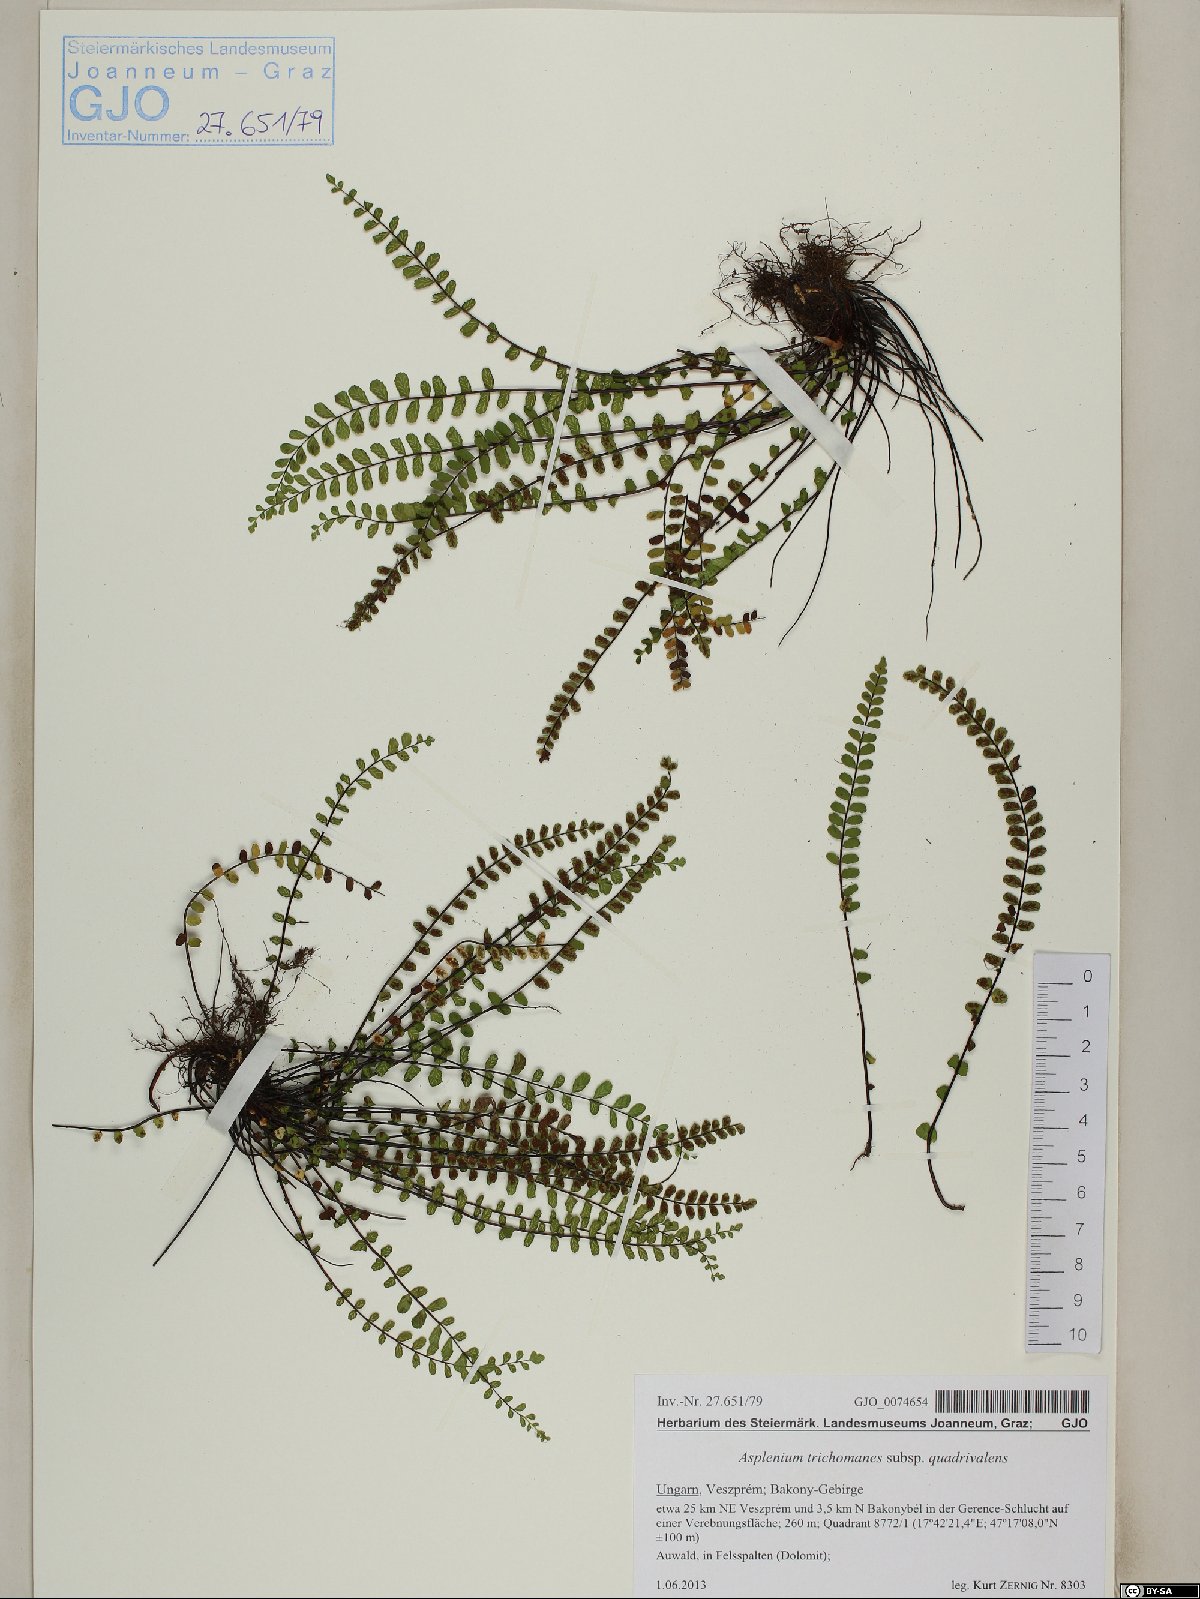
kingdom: Plantae
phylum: Tracheophyta
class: Polypodiopsida
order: Polypodiales
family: Aspleniaceae
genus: Asplenium
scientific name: Asplenium quadrivalens
